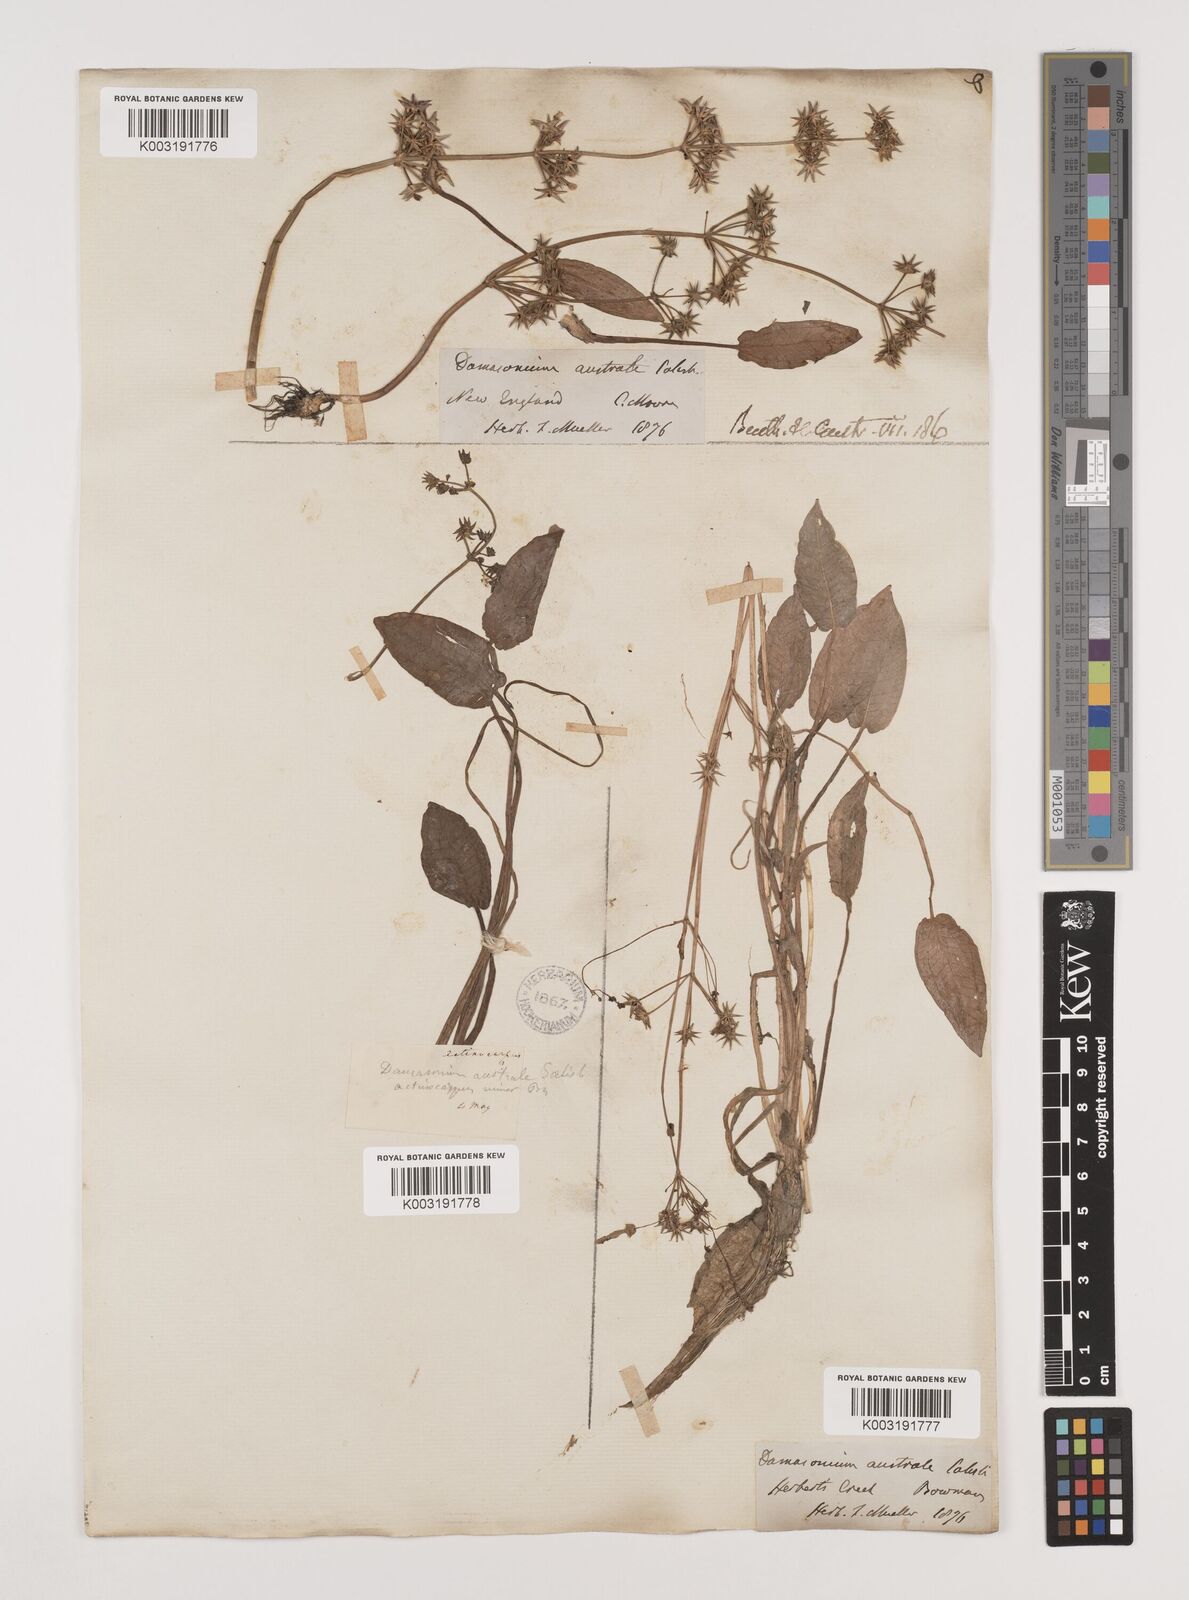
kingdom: Plantae
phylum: Tracheophyta
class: Liliopsida
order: Alismatales
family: Alismataceae
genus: Damasonium
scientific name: Damasonium minus
